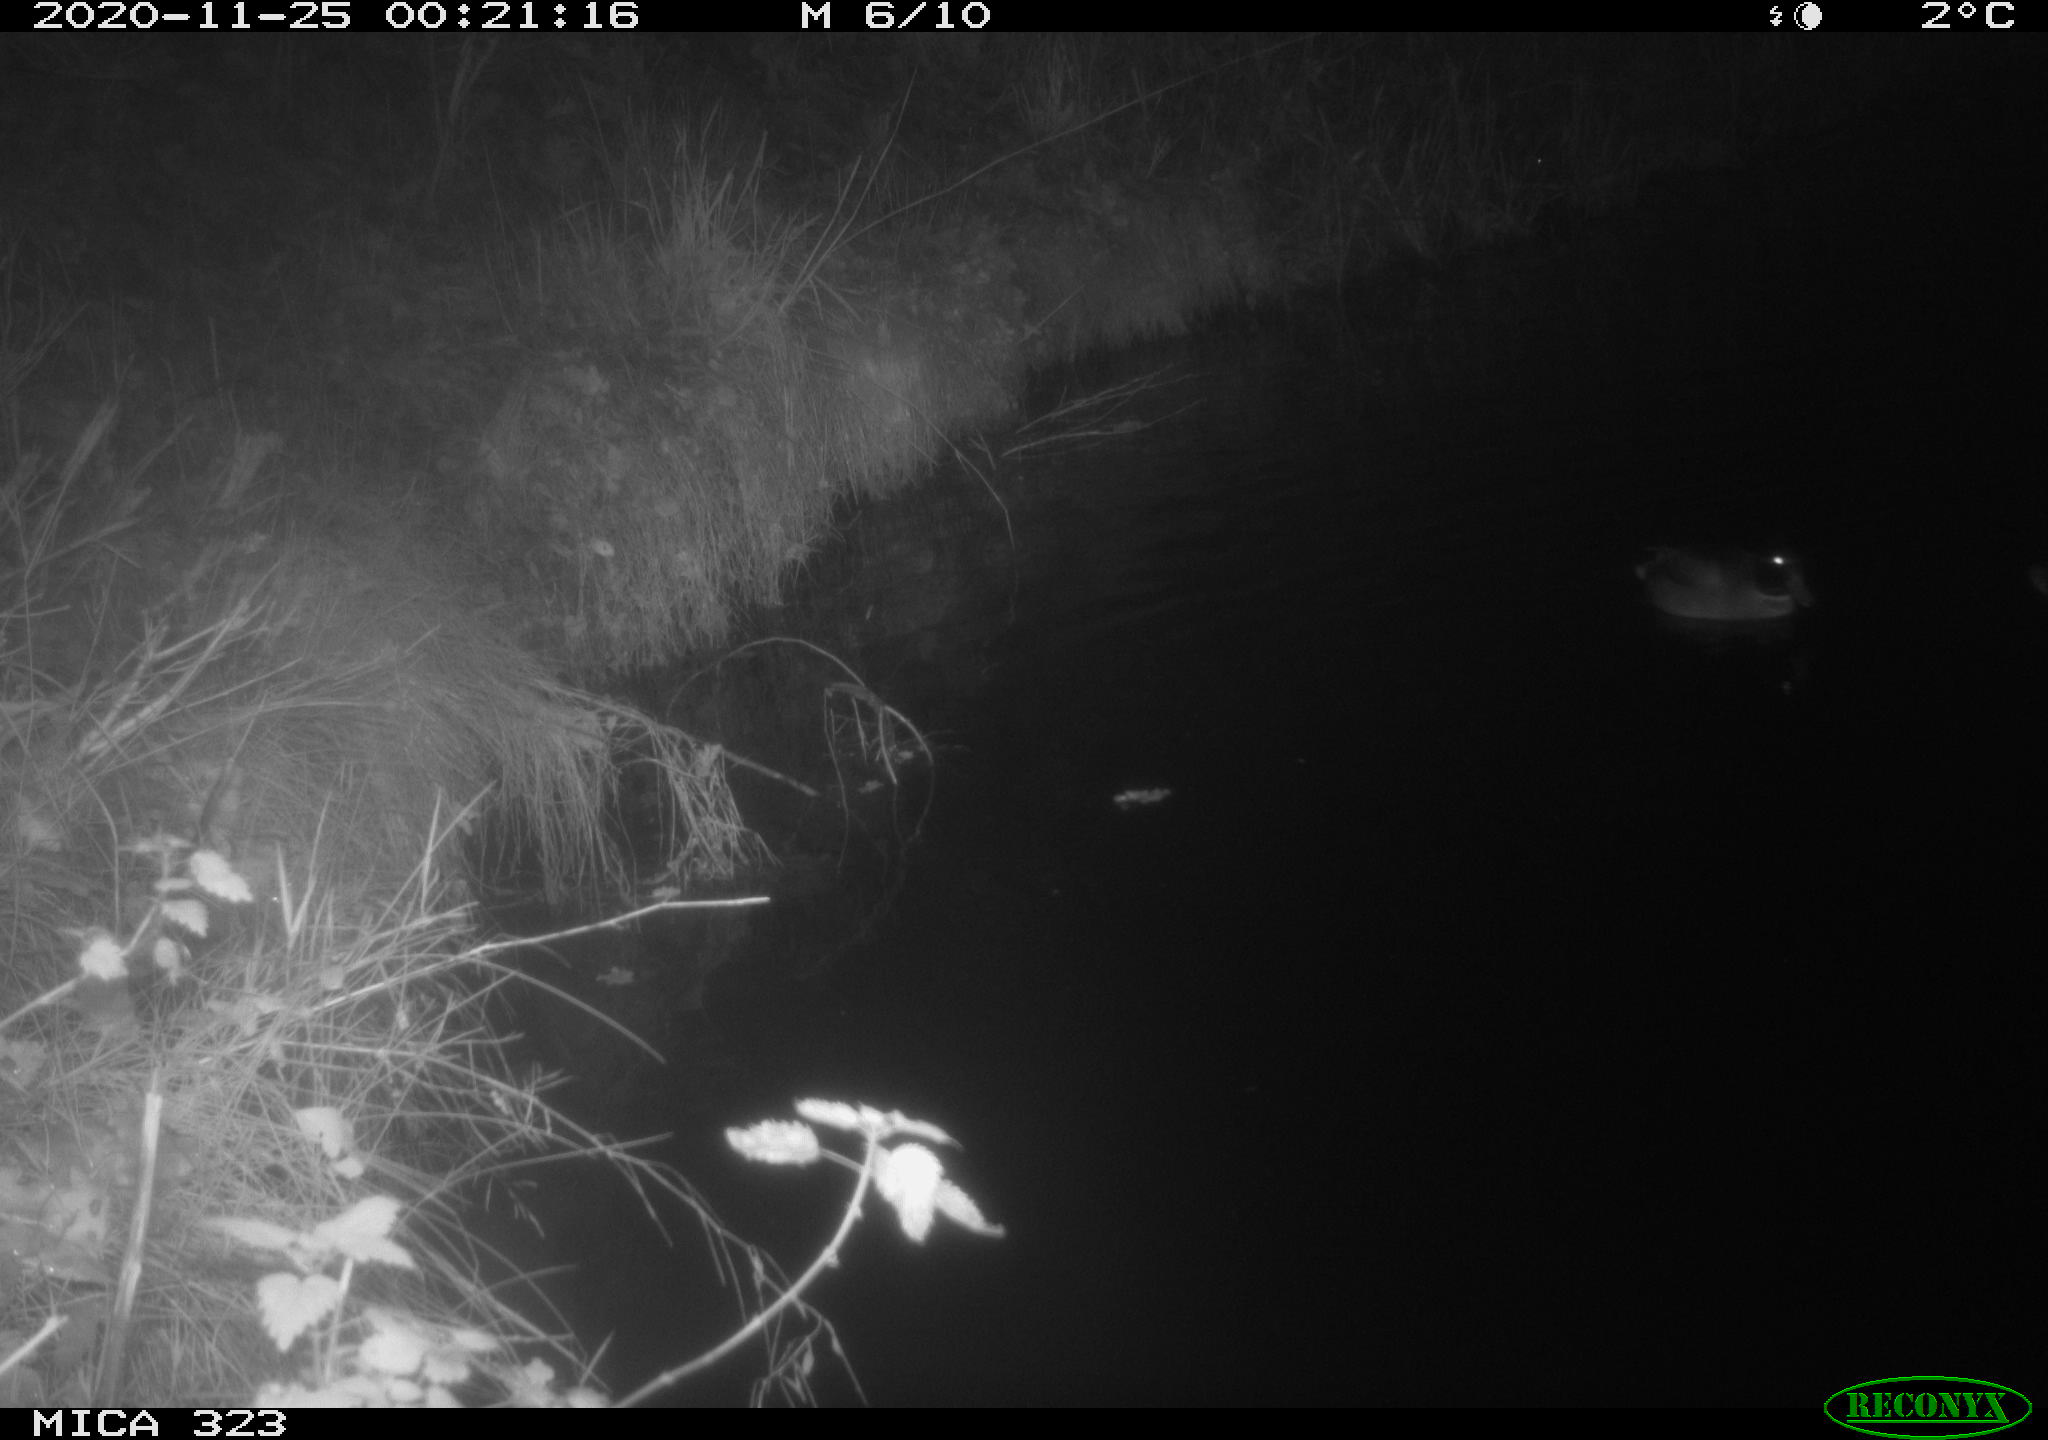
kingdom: Animalia
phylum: Chordata
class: Aves
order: Anseriformes
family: Anatidae
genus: Anas
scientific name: Anas platyrhynchos
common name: Mallard
